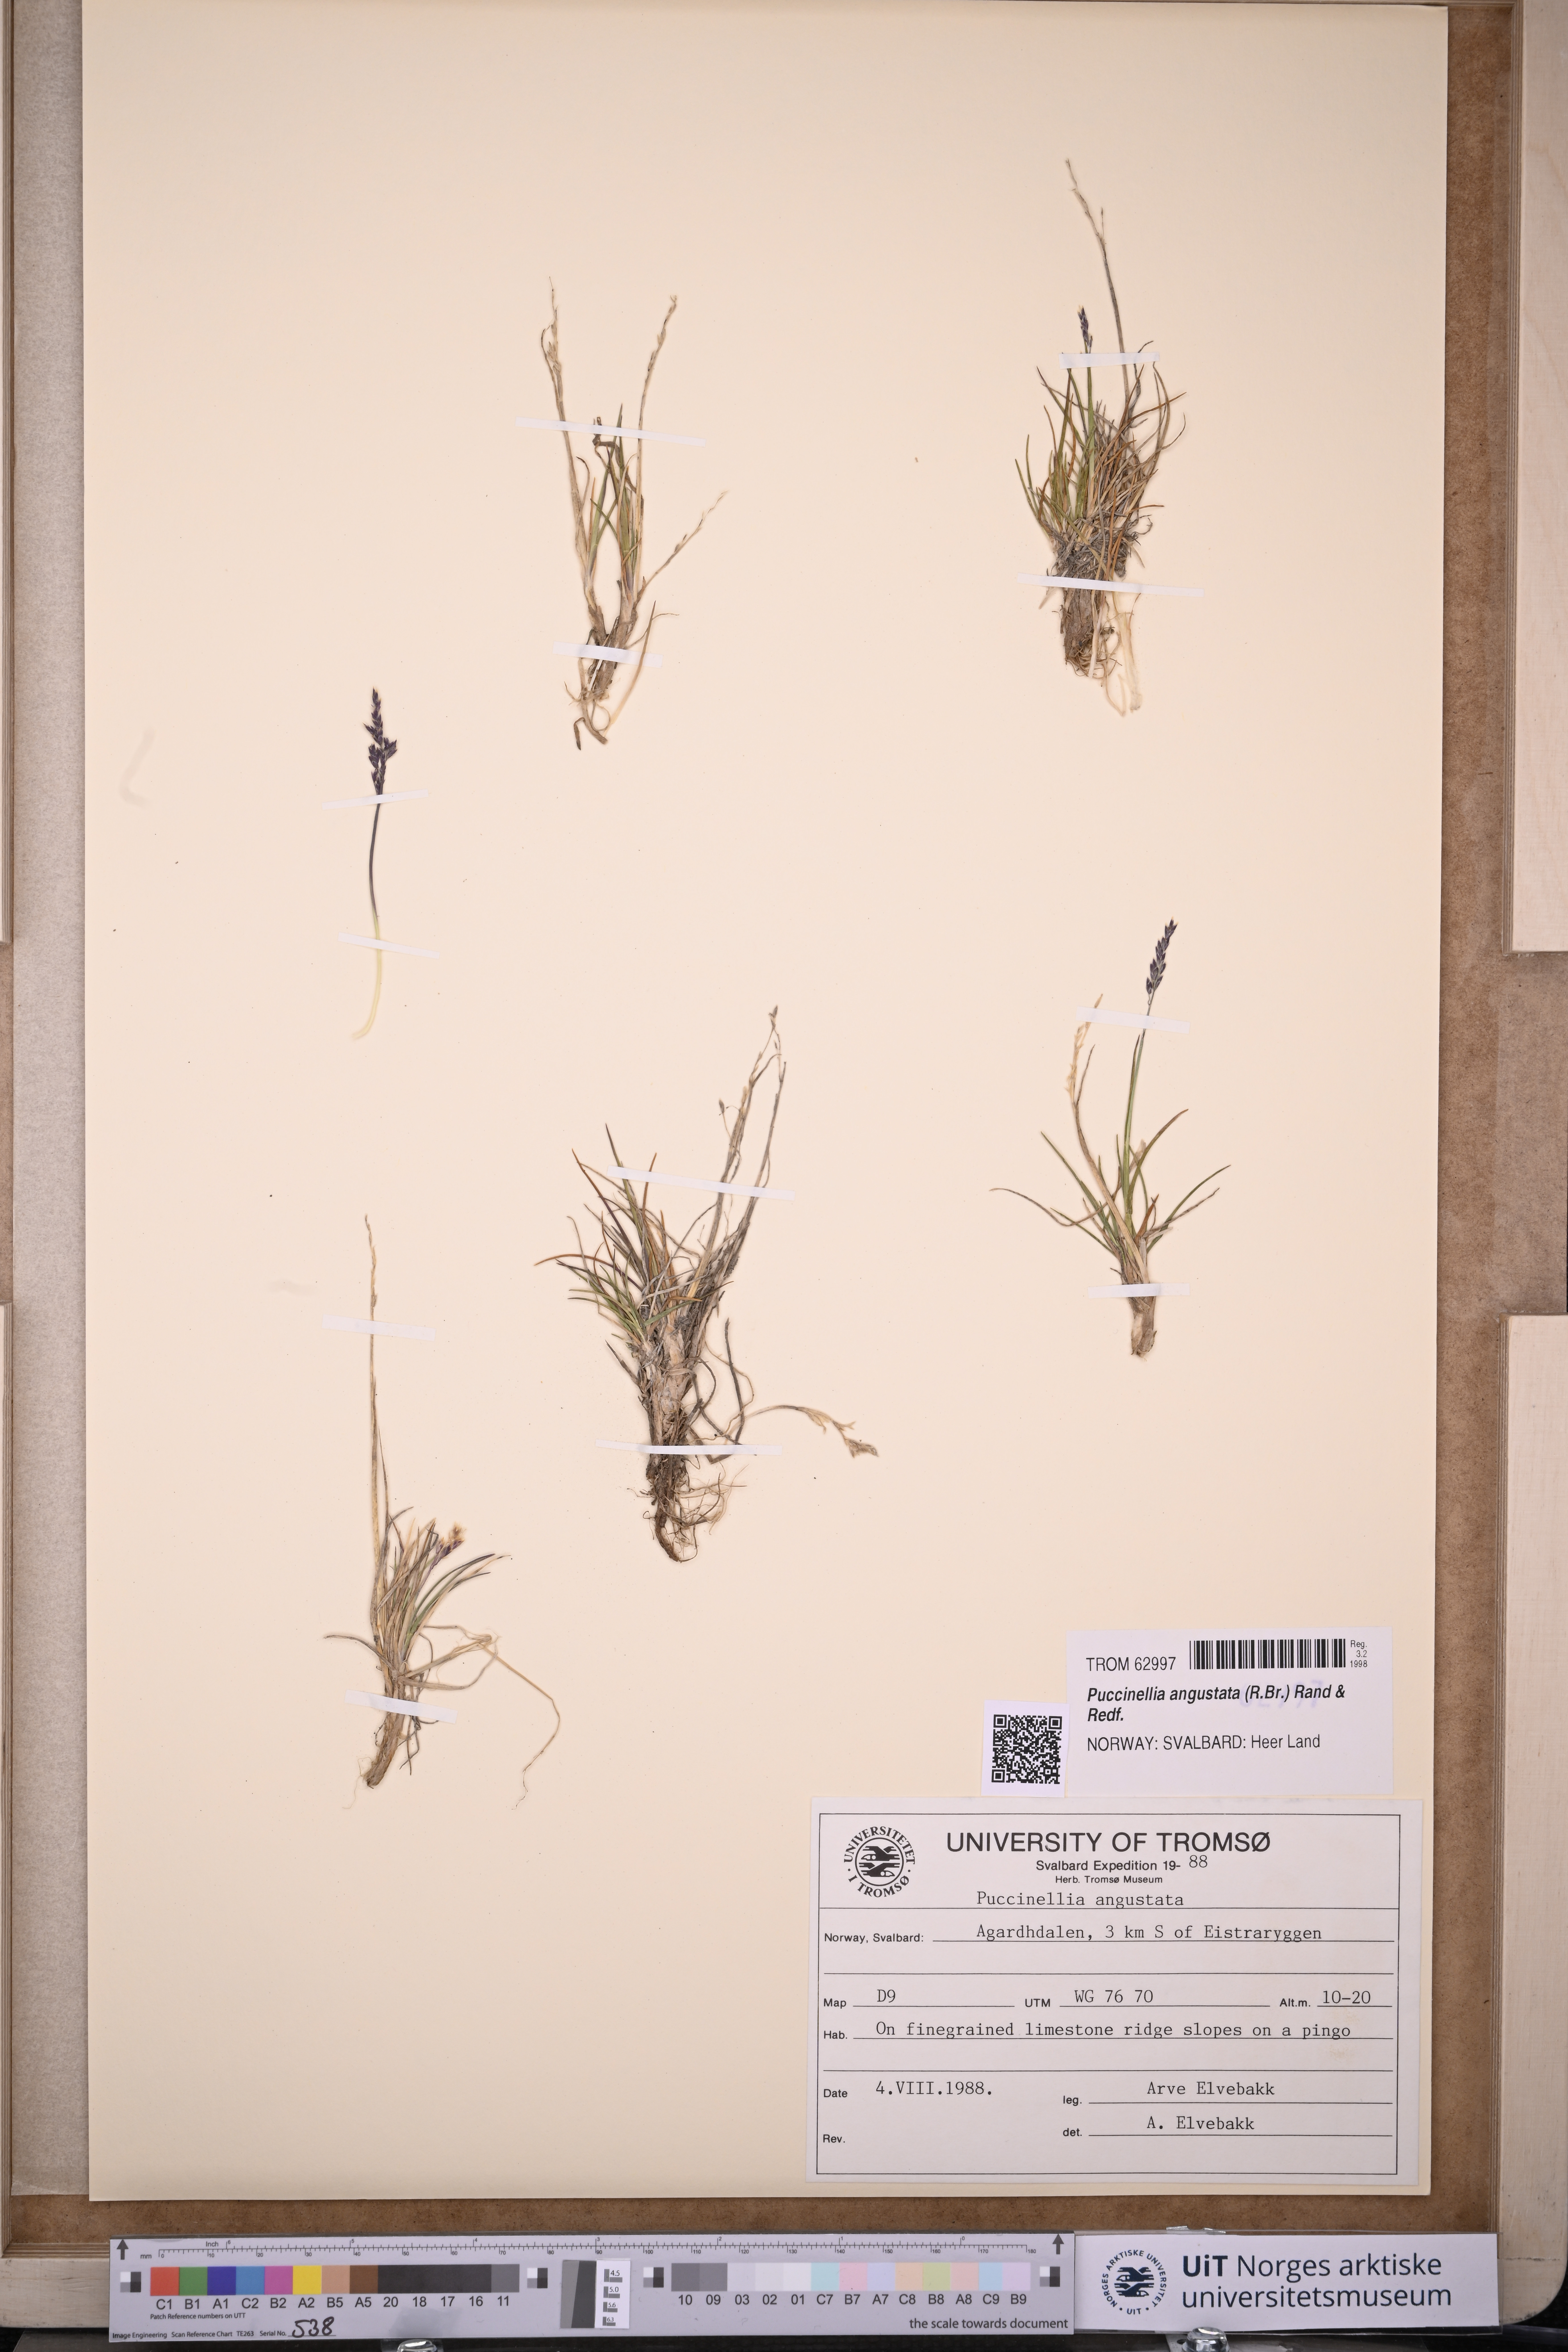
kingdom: Plantae
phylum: Tracheophyta
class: Liliopsida
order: Poales
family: Poaceae
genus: Puccinellia
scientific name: Puccinellia angustata
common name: Narrow alkaligrass
